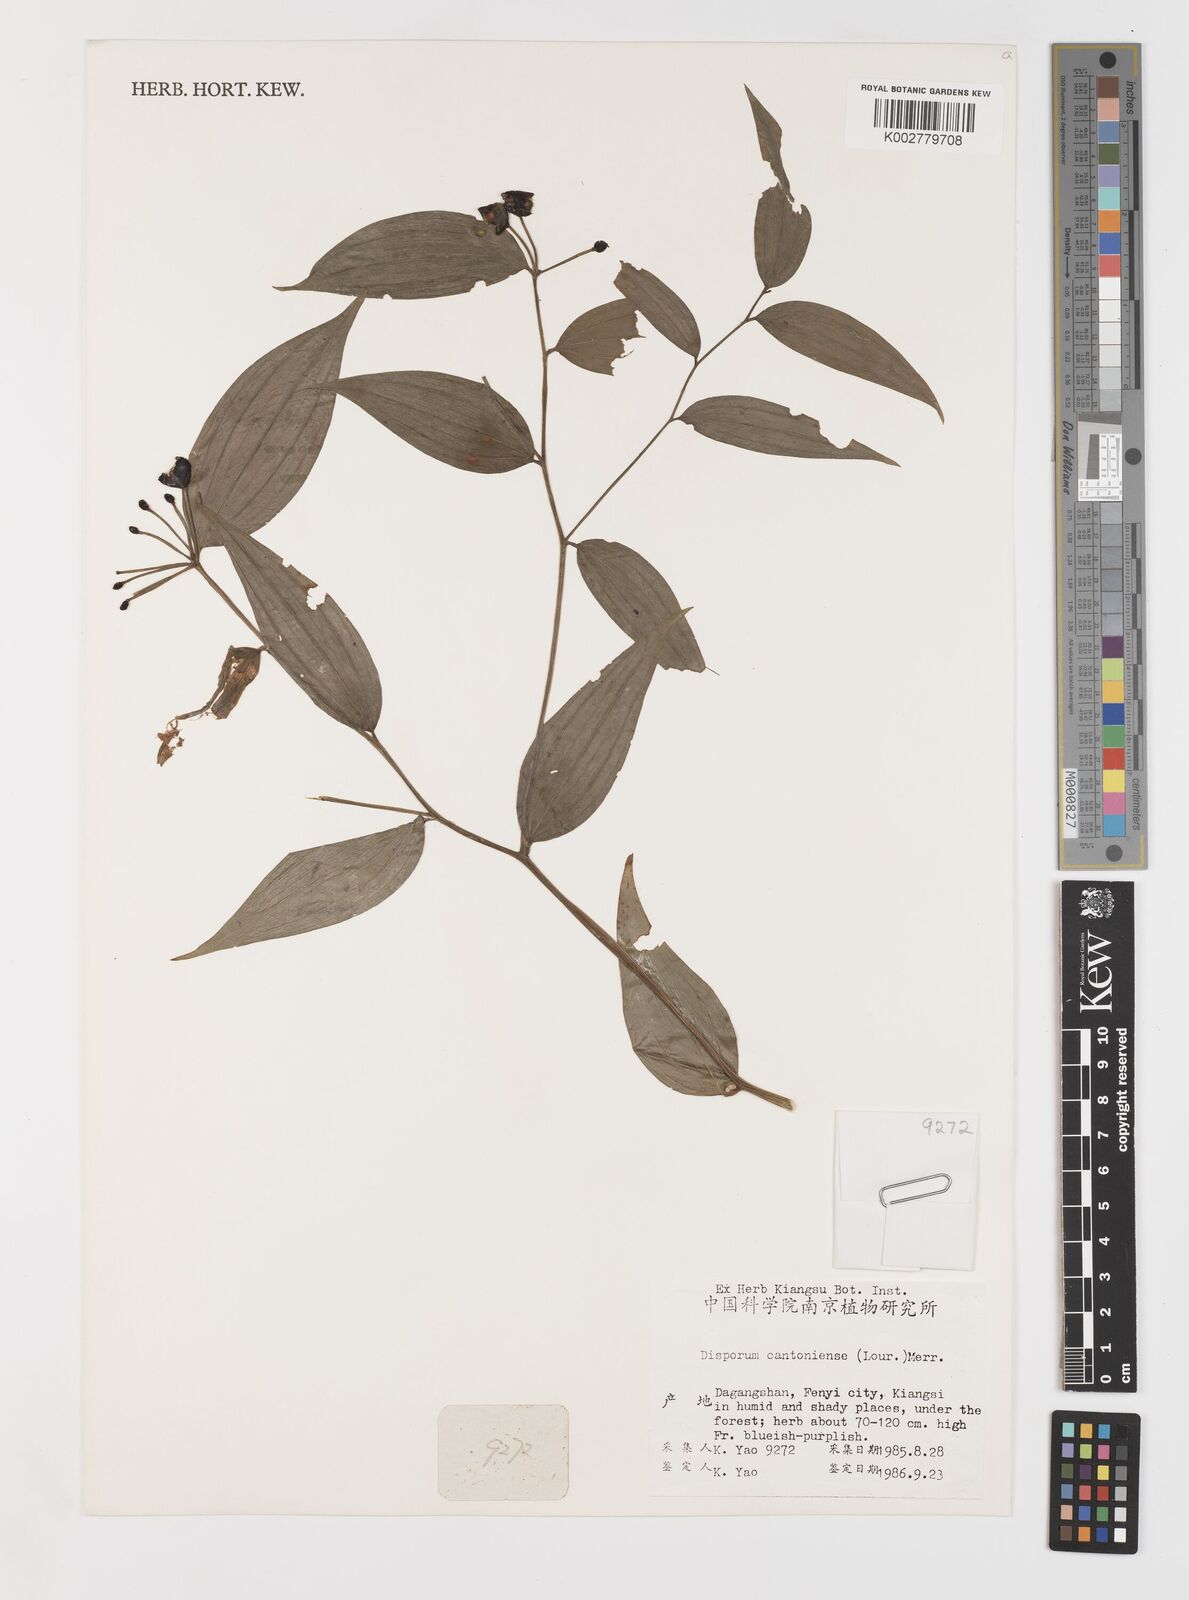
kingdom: Plantae
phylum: Tracheophyta
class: Liliopsida
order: Liliales
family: Colchicaceae
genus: Disporum
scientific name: Disporum cantoniense
